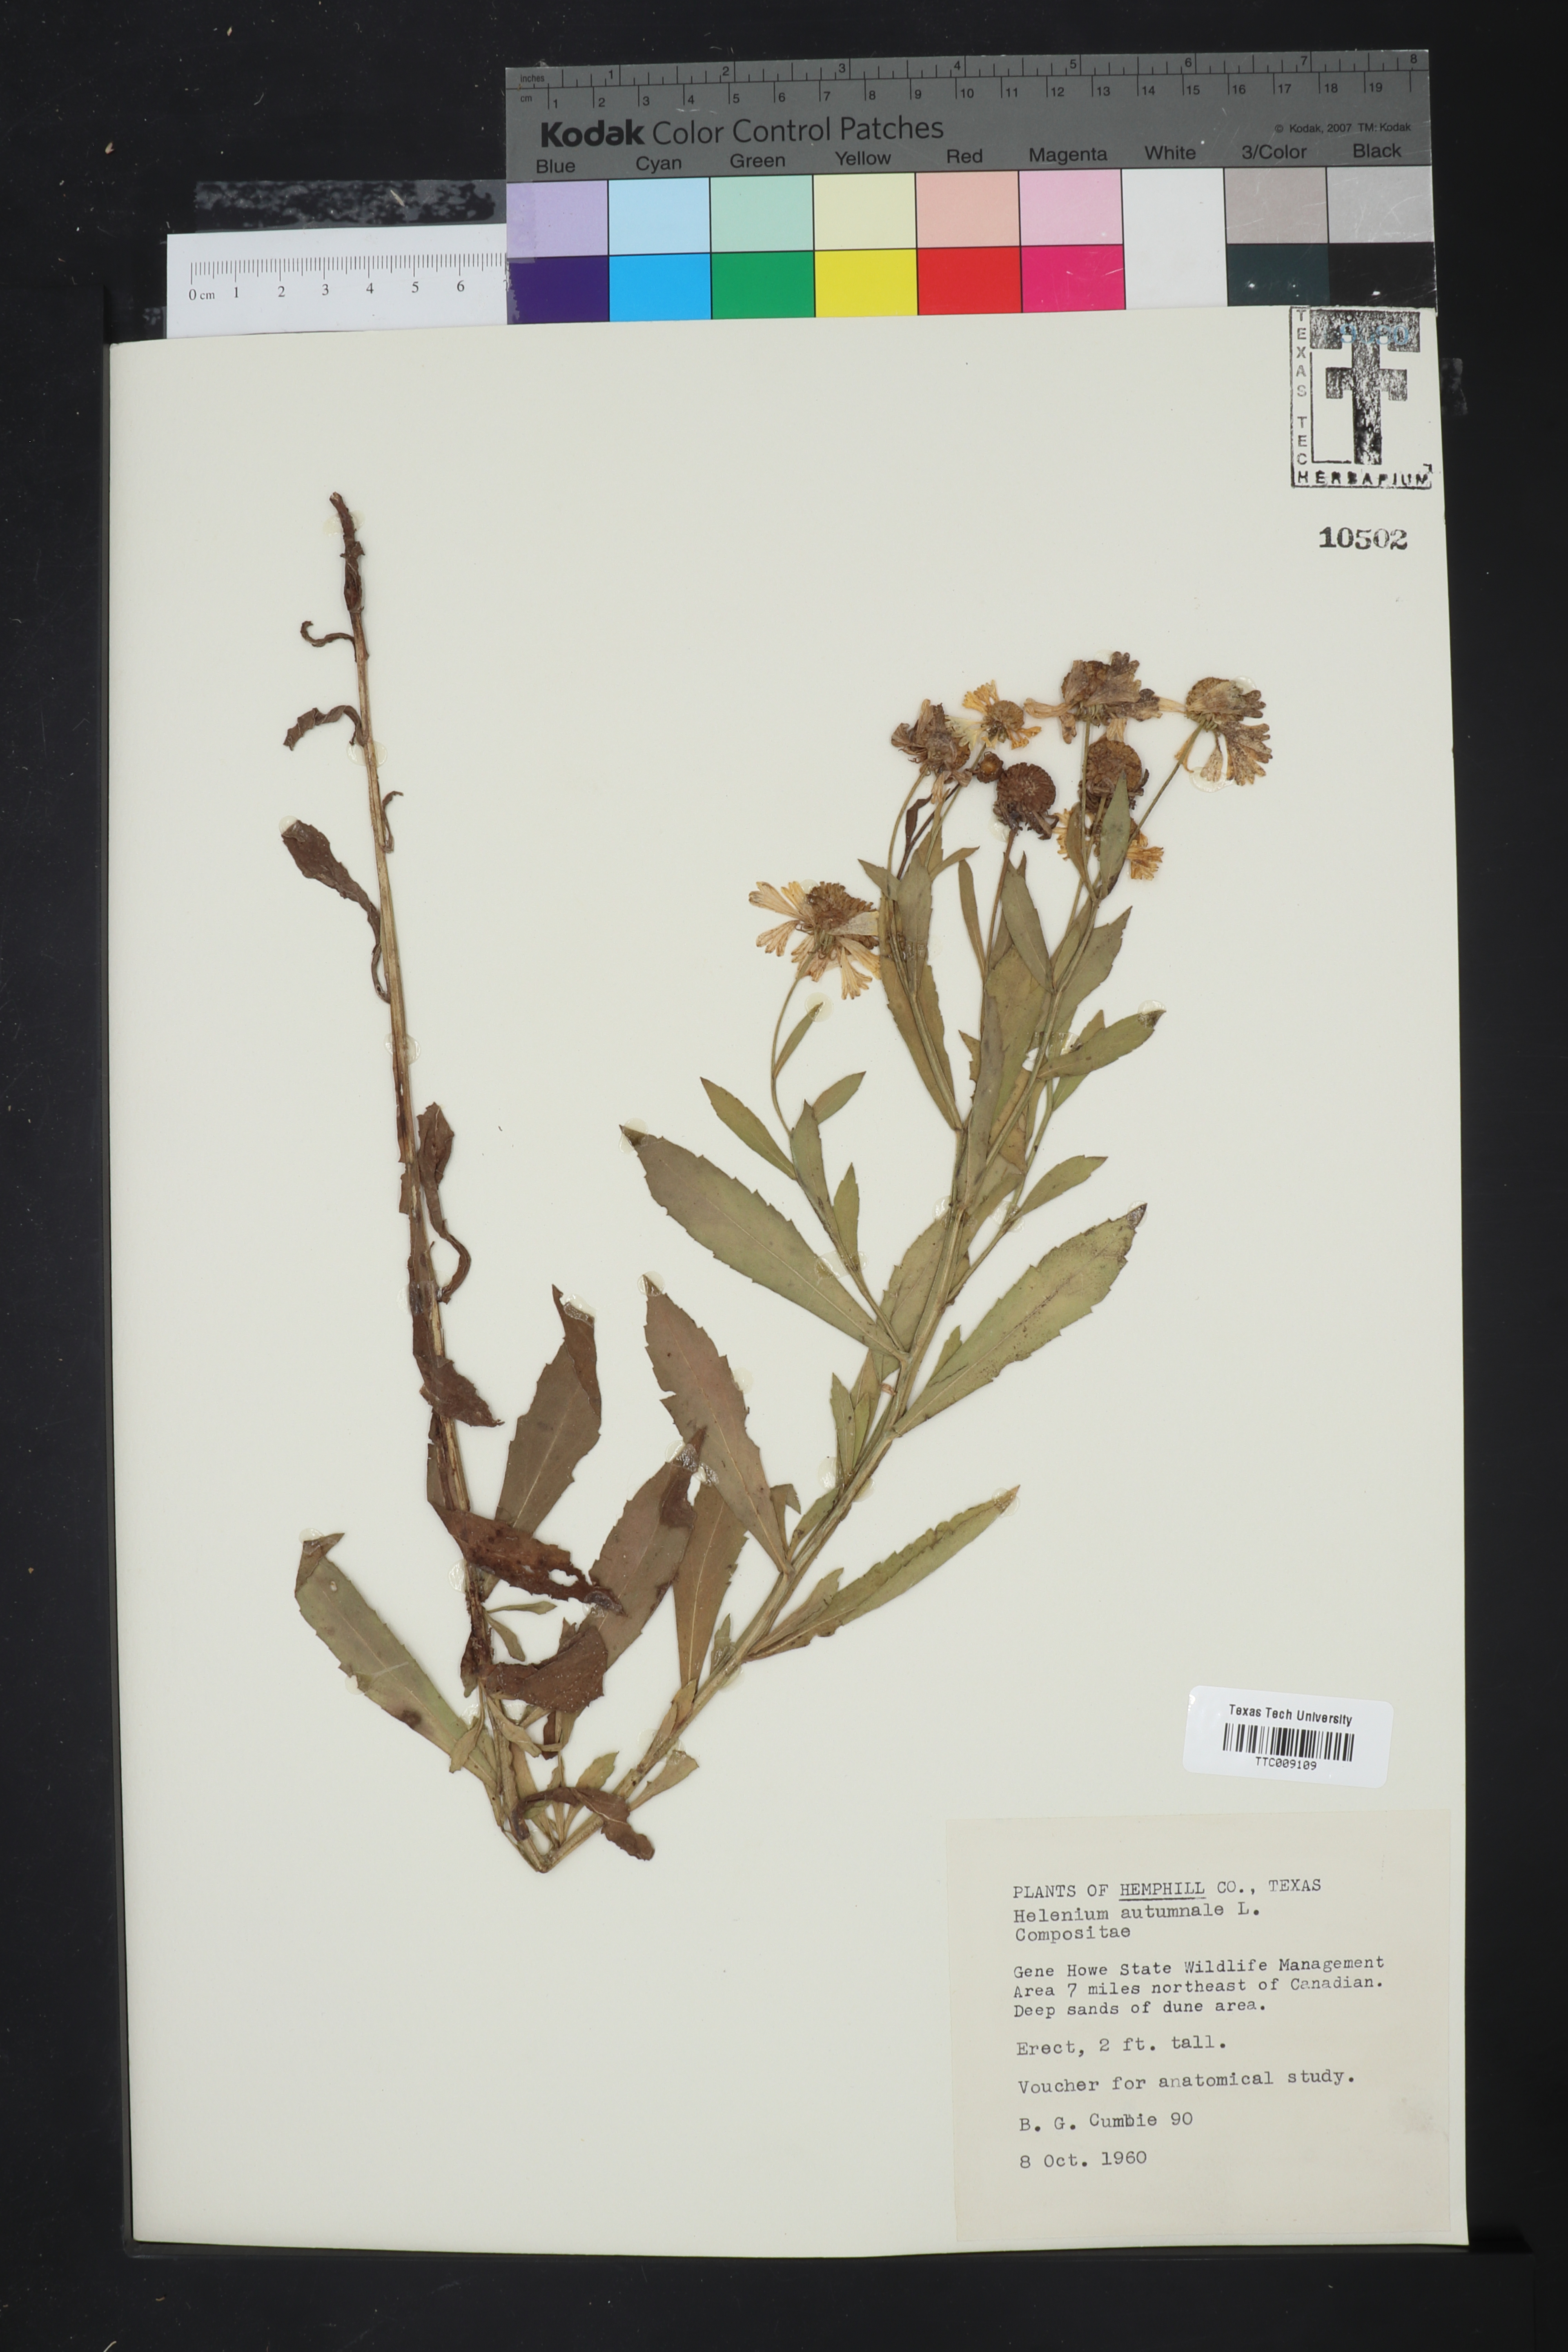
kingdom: Plantae
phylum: Tracheophyta
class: Magnoliopsida
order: Asterales
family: Asteraceae
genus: Helenium
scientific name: Helenium autumnale
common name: Sneezeweed
